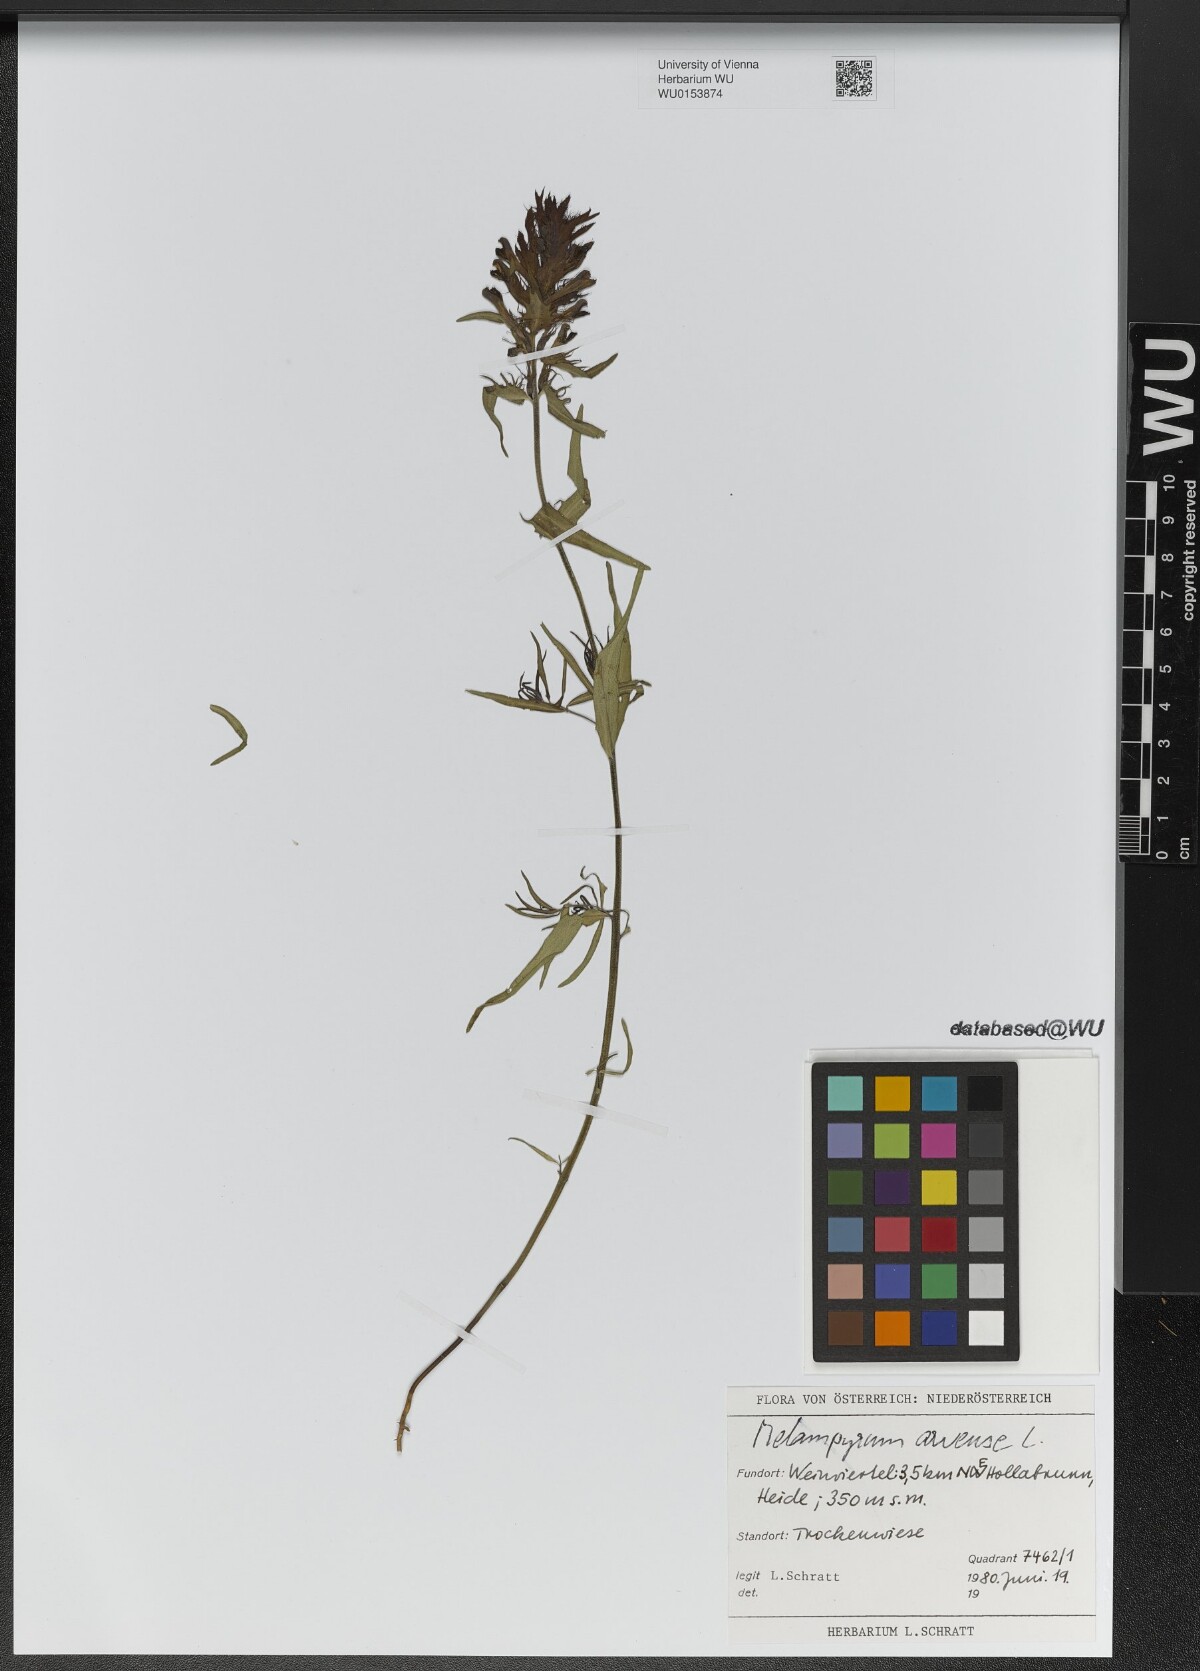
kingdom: Plantae
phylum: Tracheophyta
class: Magnoliopsida
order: Lamiales
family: Orobanchaceae
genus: Melampyrum
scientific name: Melampyrum arvense
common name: Field cow-wheat
